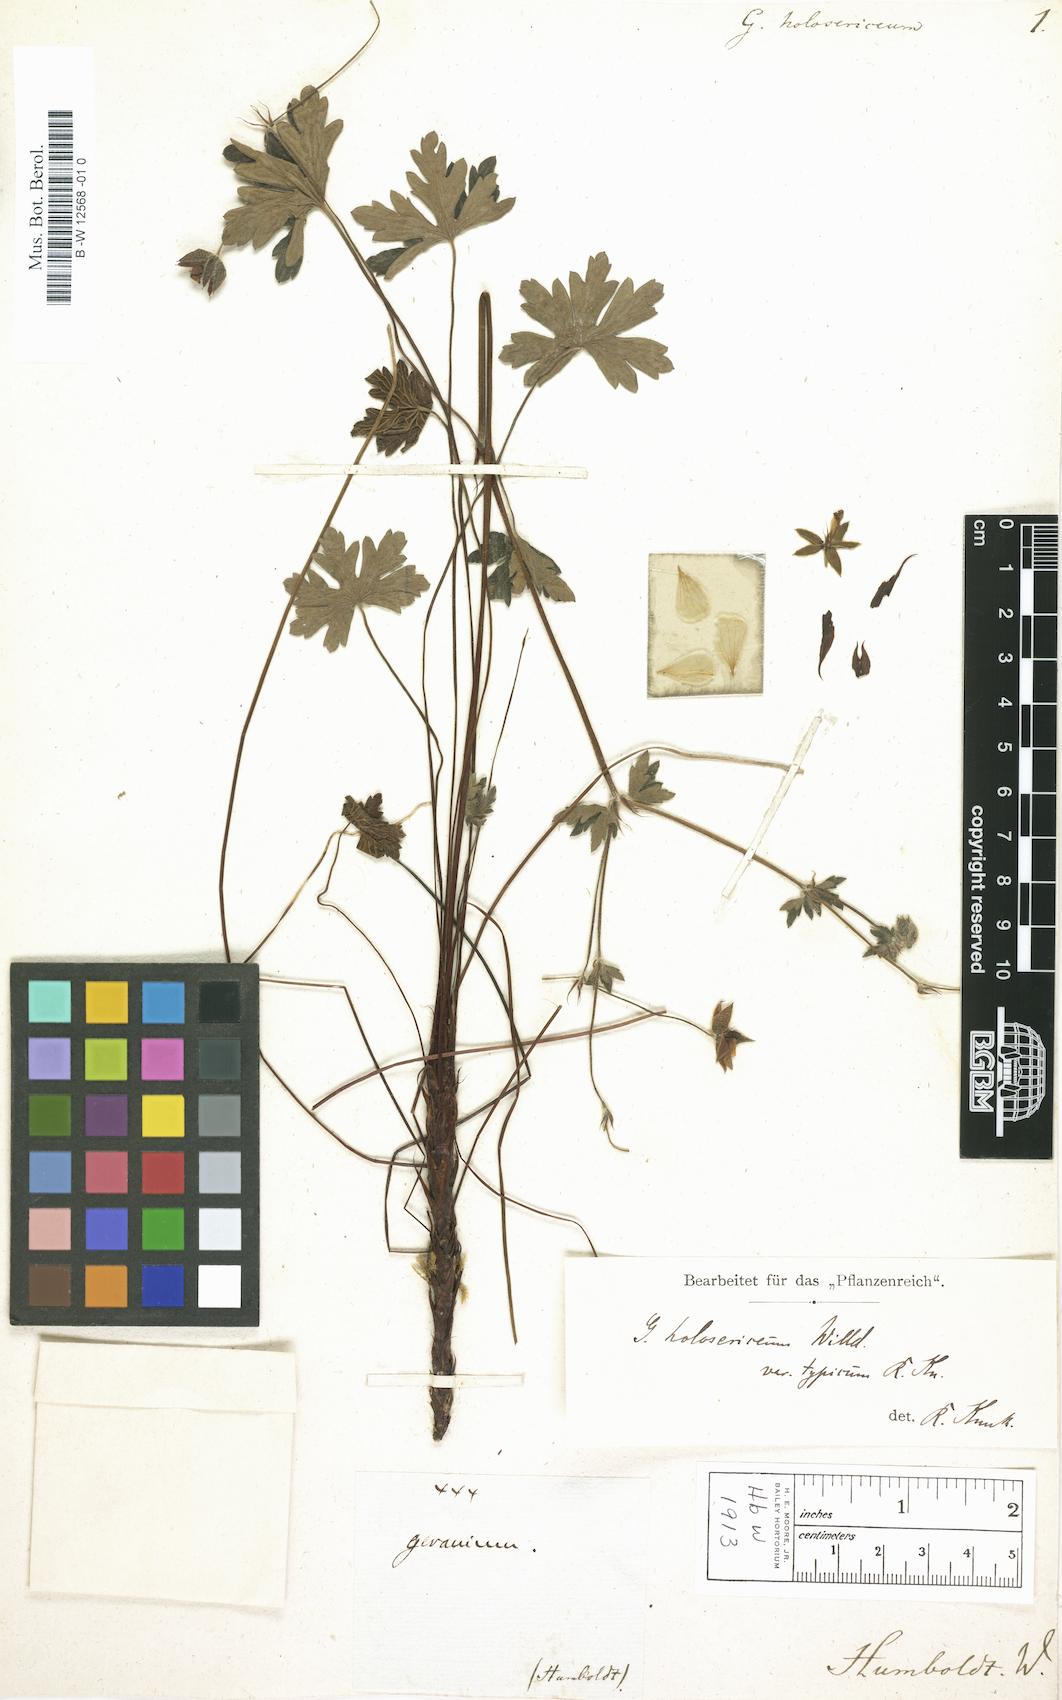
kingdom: Plantae
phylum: Tracheophyta
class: Magnoliopsida
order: Geraniales
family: Geraniaceae
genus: Geranium
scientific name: Geranium holosericeum
